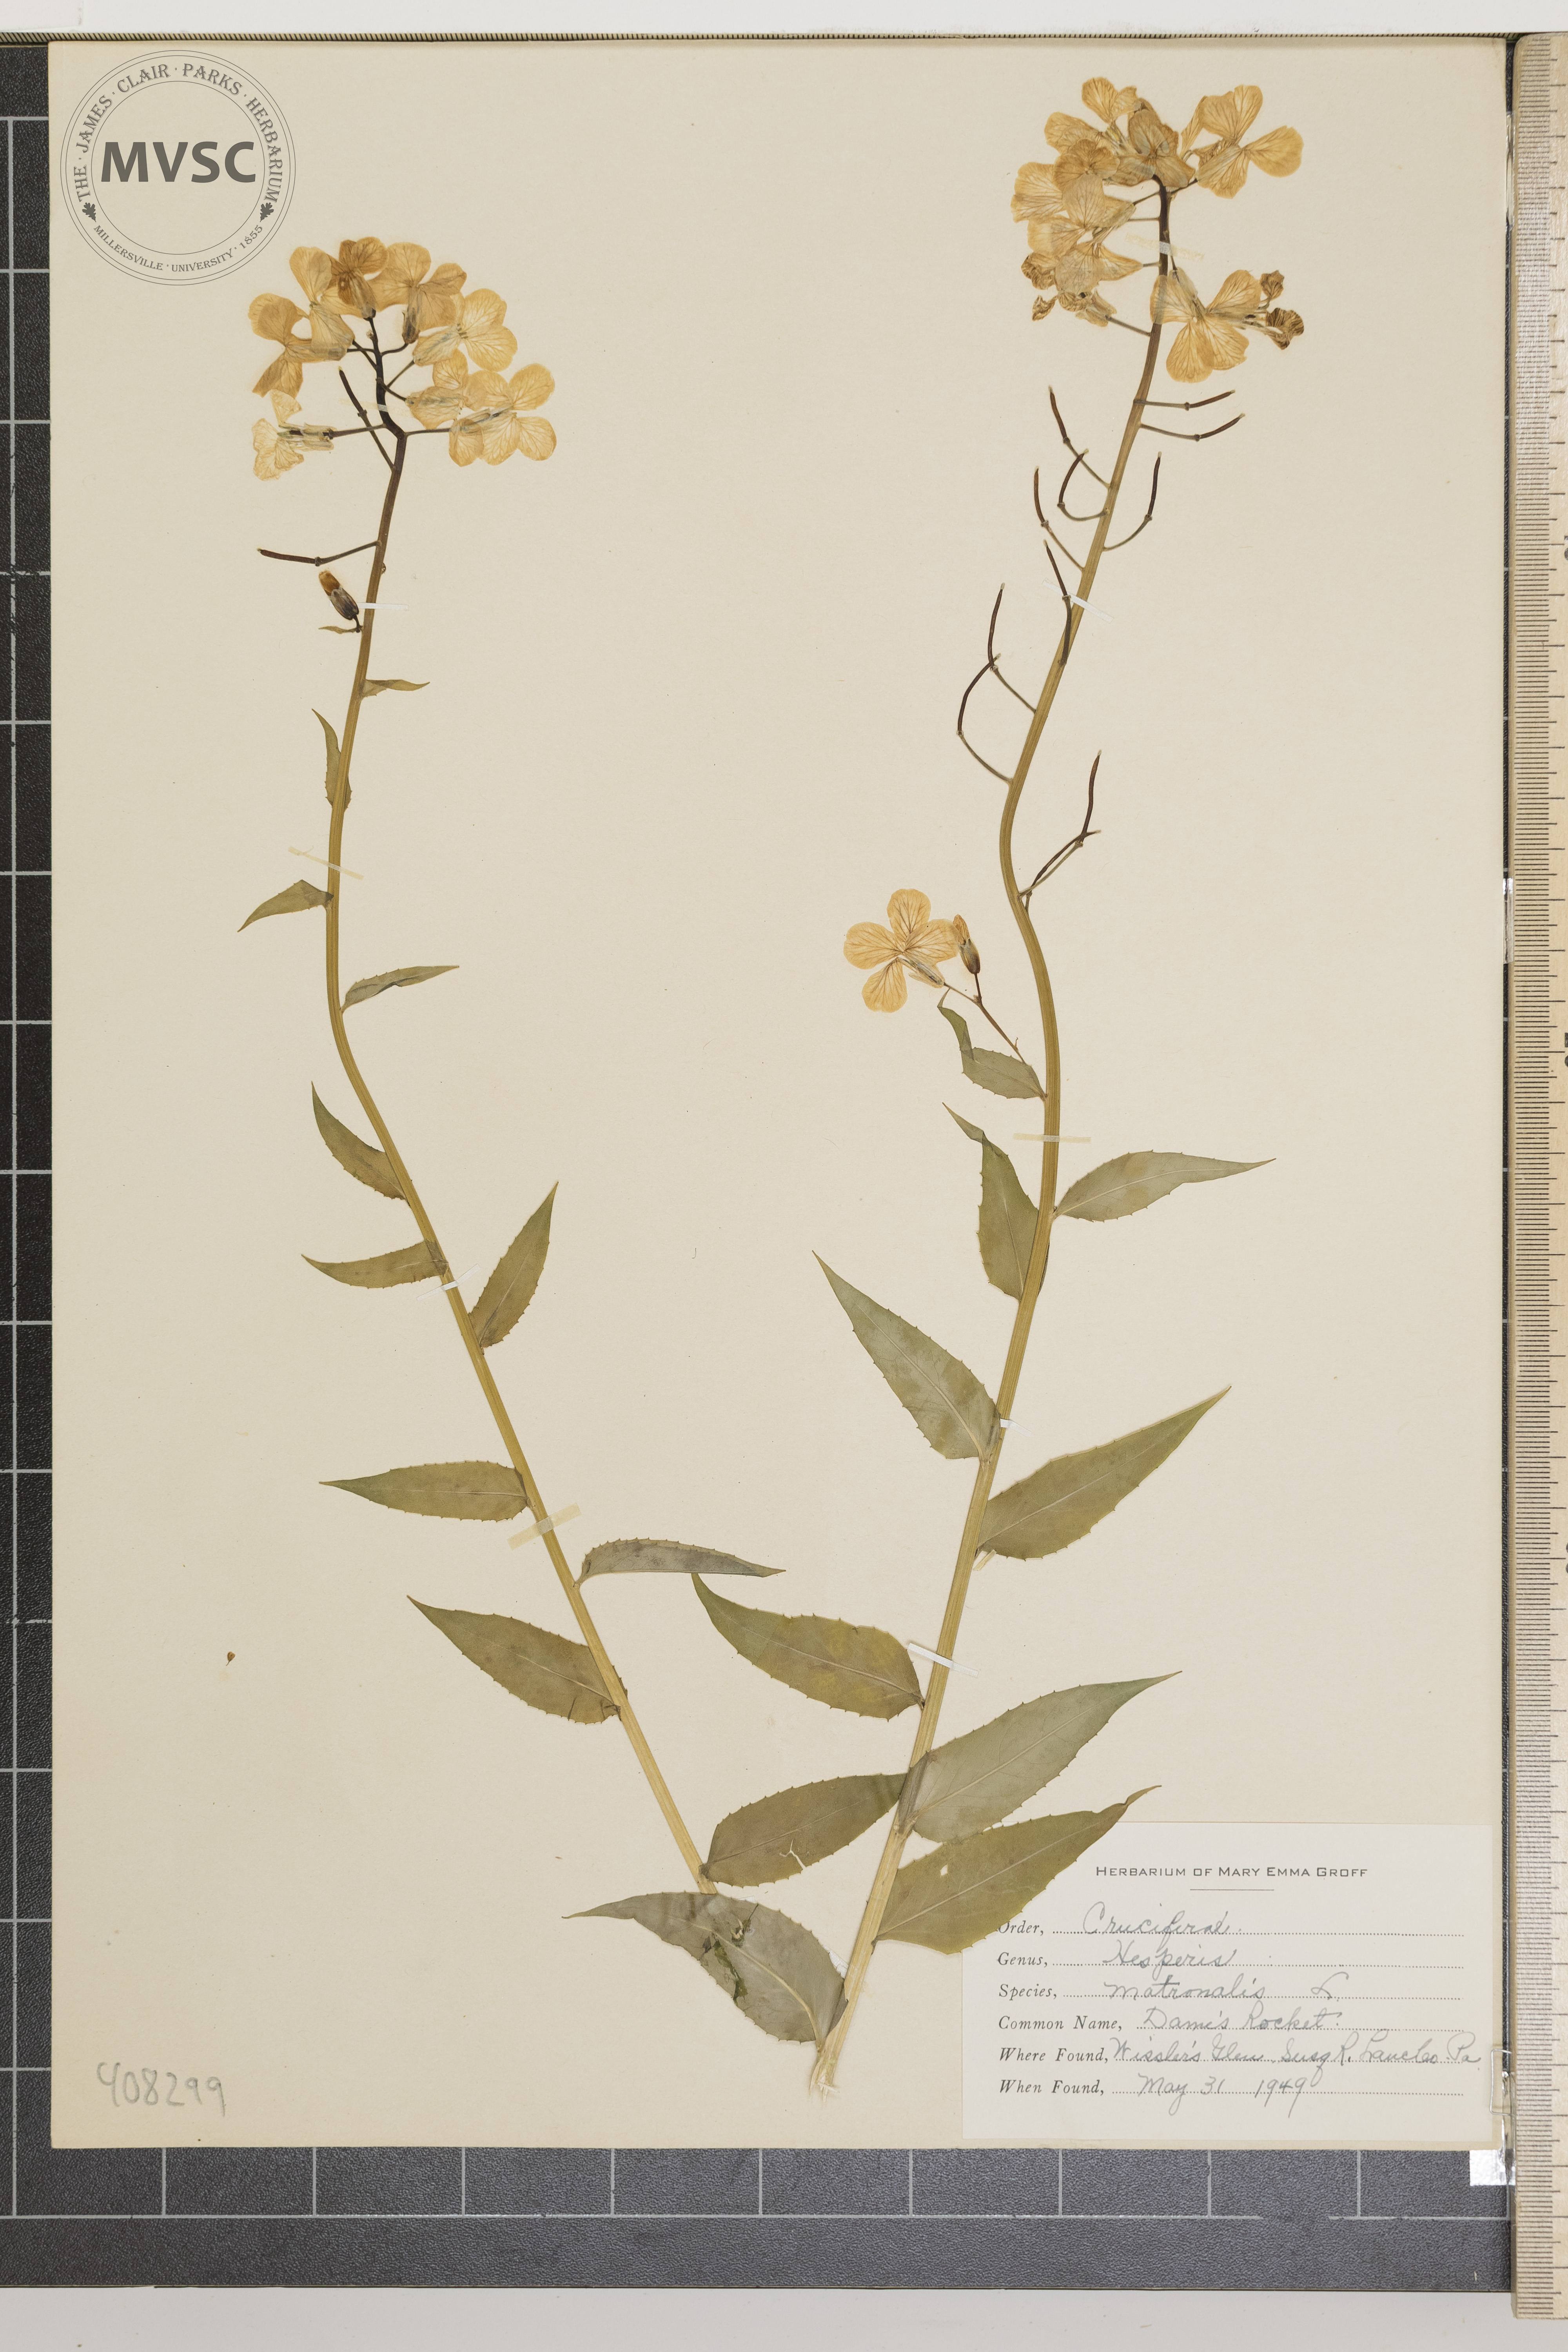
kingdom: Plantae
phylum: Tracheophyta
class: Magnoliopsida
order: Brassicales
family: Brassicaceae
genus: Hesperis
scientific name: Hesperis matronalis
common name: dame's rocket
